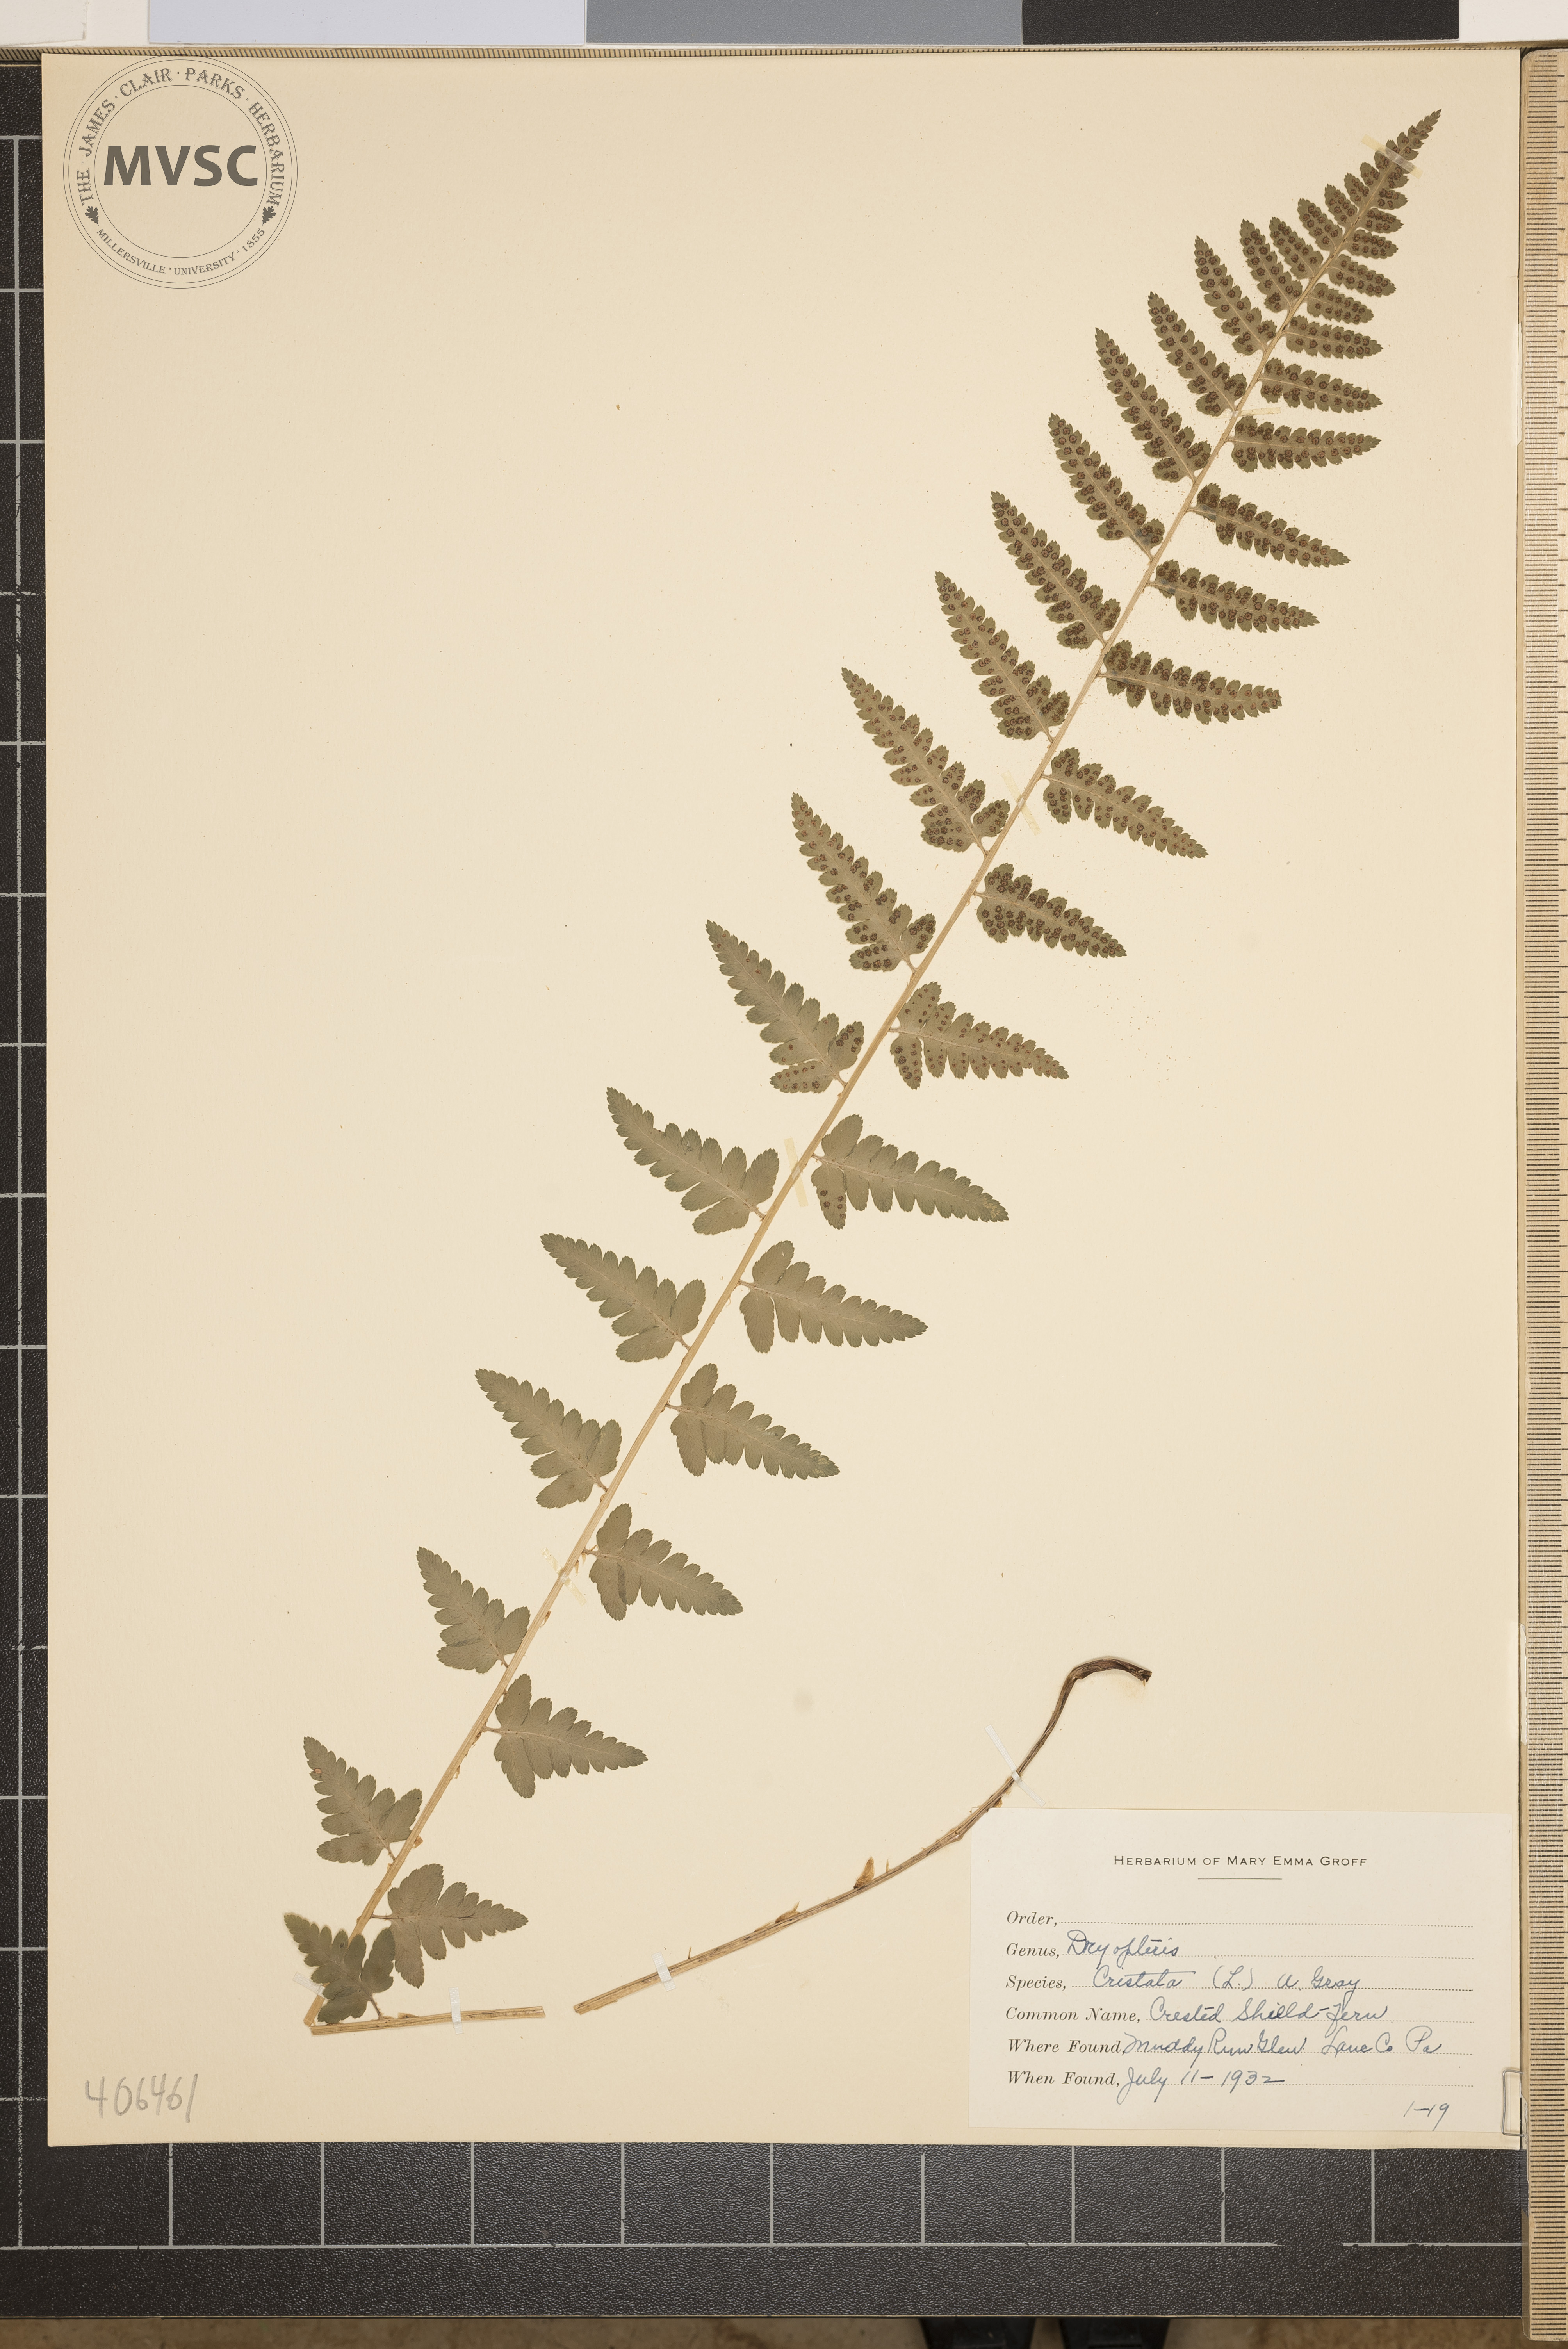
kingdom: Plantae
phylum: Tracheophyta
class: Polypodiopsida
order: Polypodiales
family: Dryopteridaceae
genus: Dryopteris
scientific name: Dryopteris cristata
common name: Crested Shield Fern
